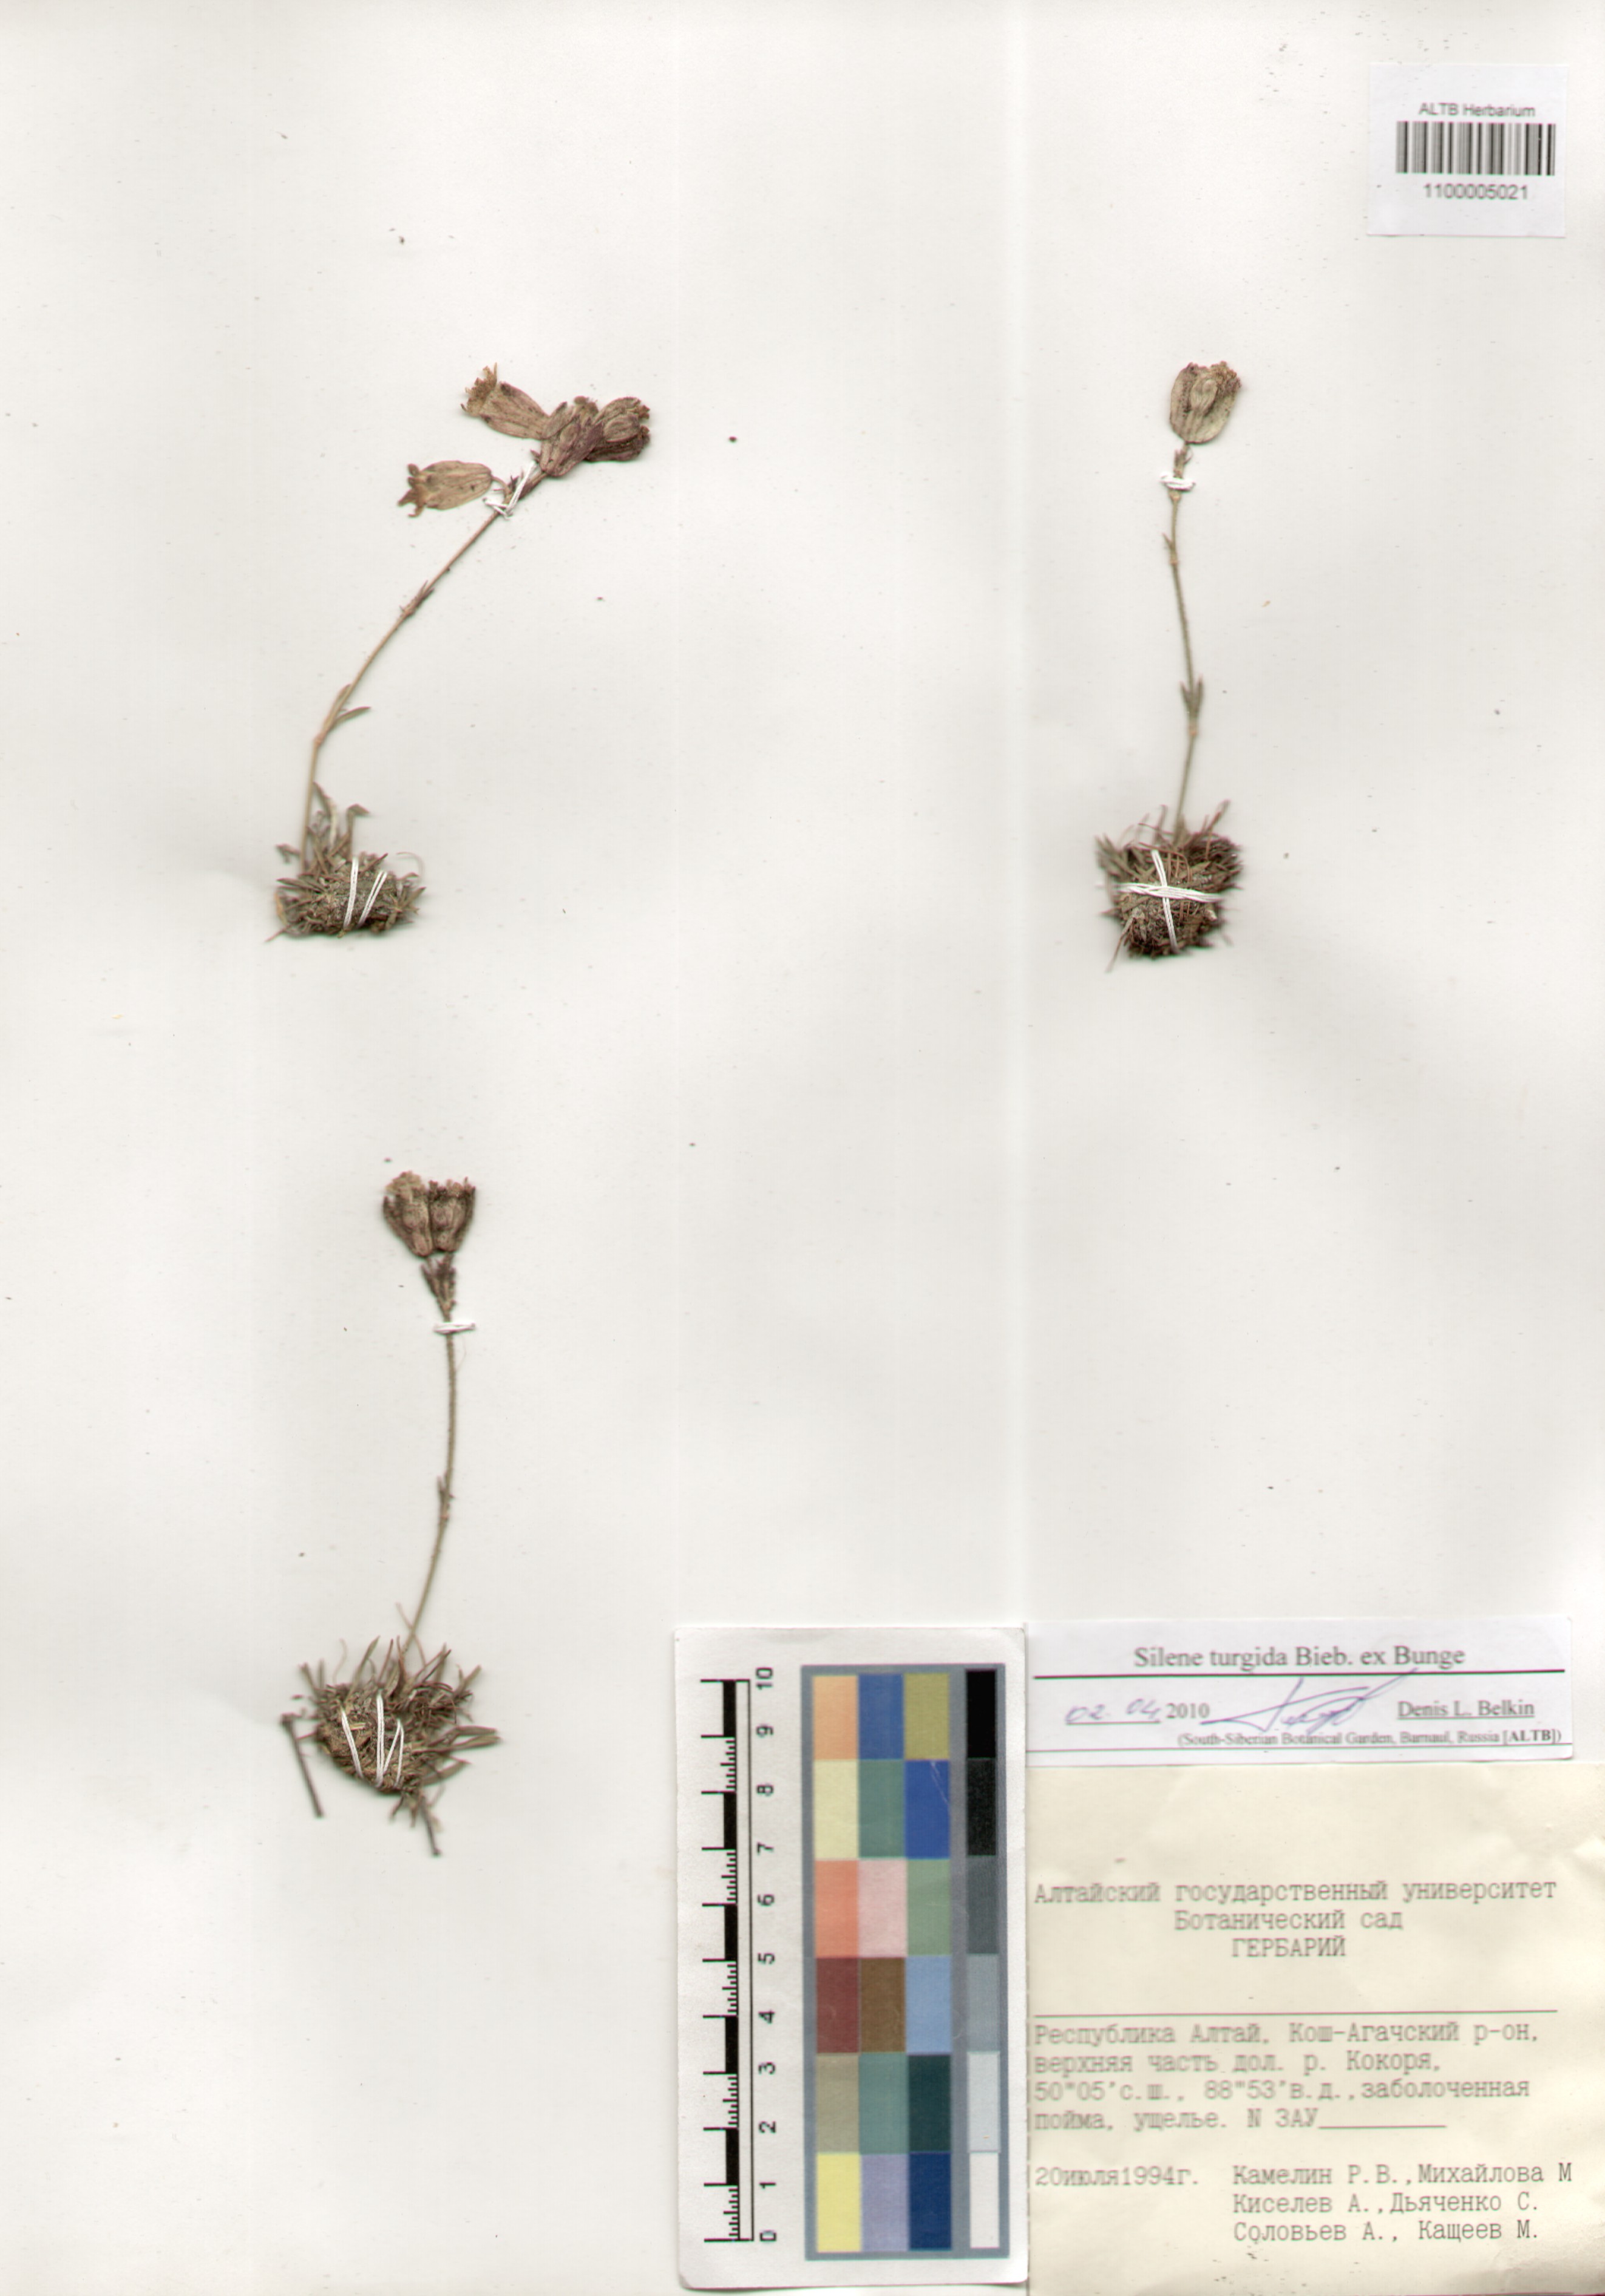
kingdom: Plantae
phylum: Tracheophyta
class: Magnoliopsida
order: Caryophyllales
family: Caryophyllaceae
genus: Silene
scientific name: Silene turgida
